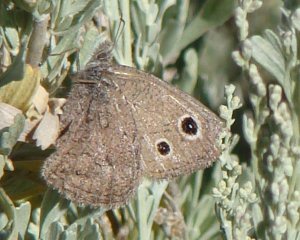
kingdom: Animalia
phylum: Arthropoda
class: Insecta
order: Lepidoptera
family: Nymphalidae
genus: Cercyonis
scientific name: Cercyonis oetus
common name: Small Wood-Nymph
